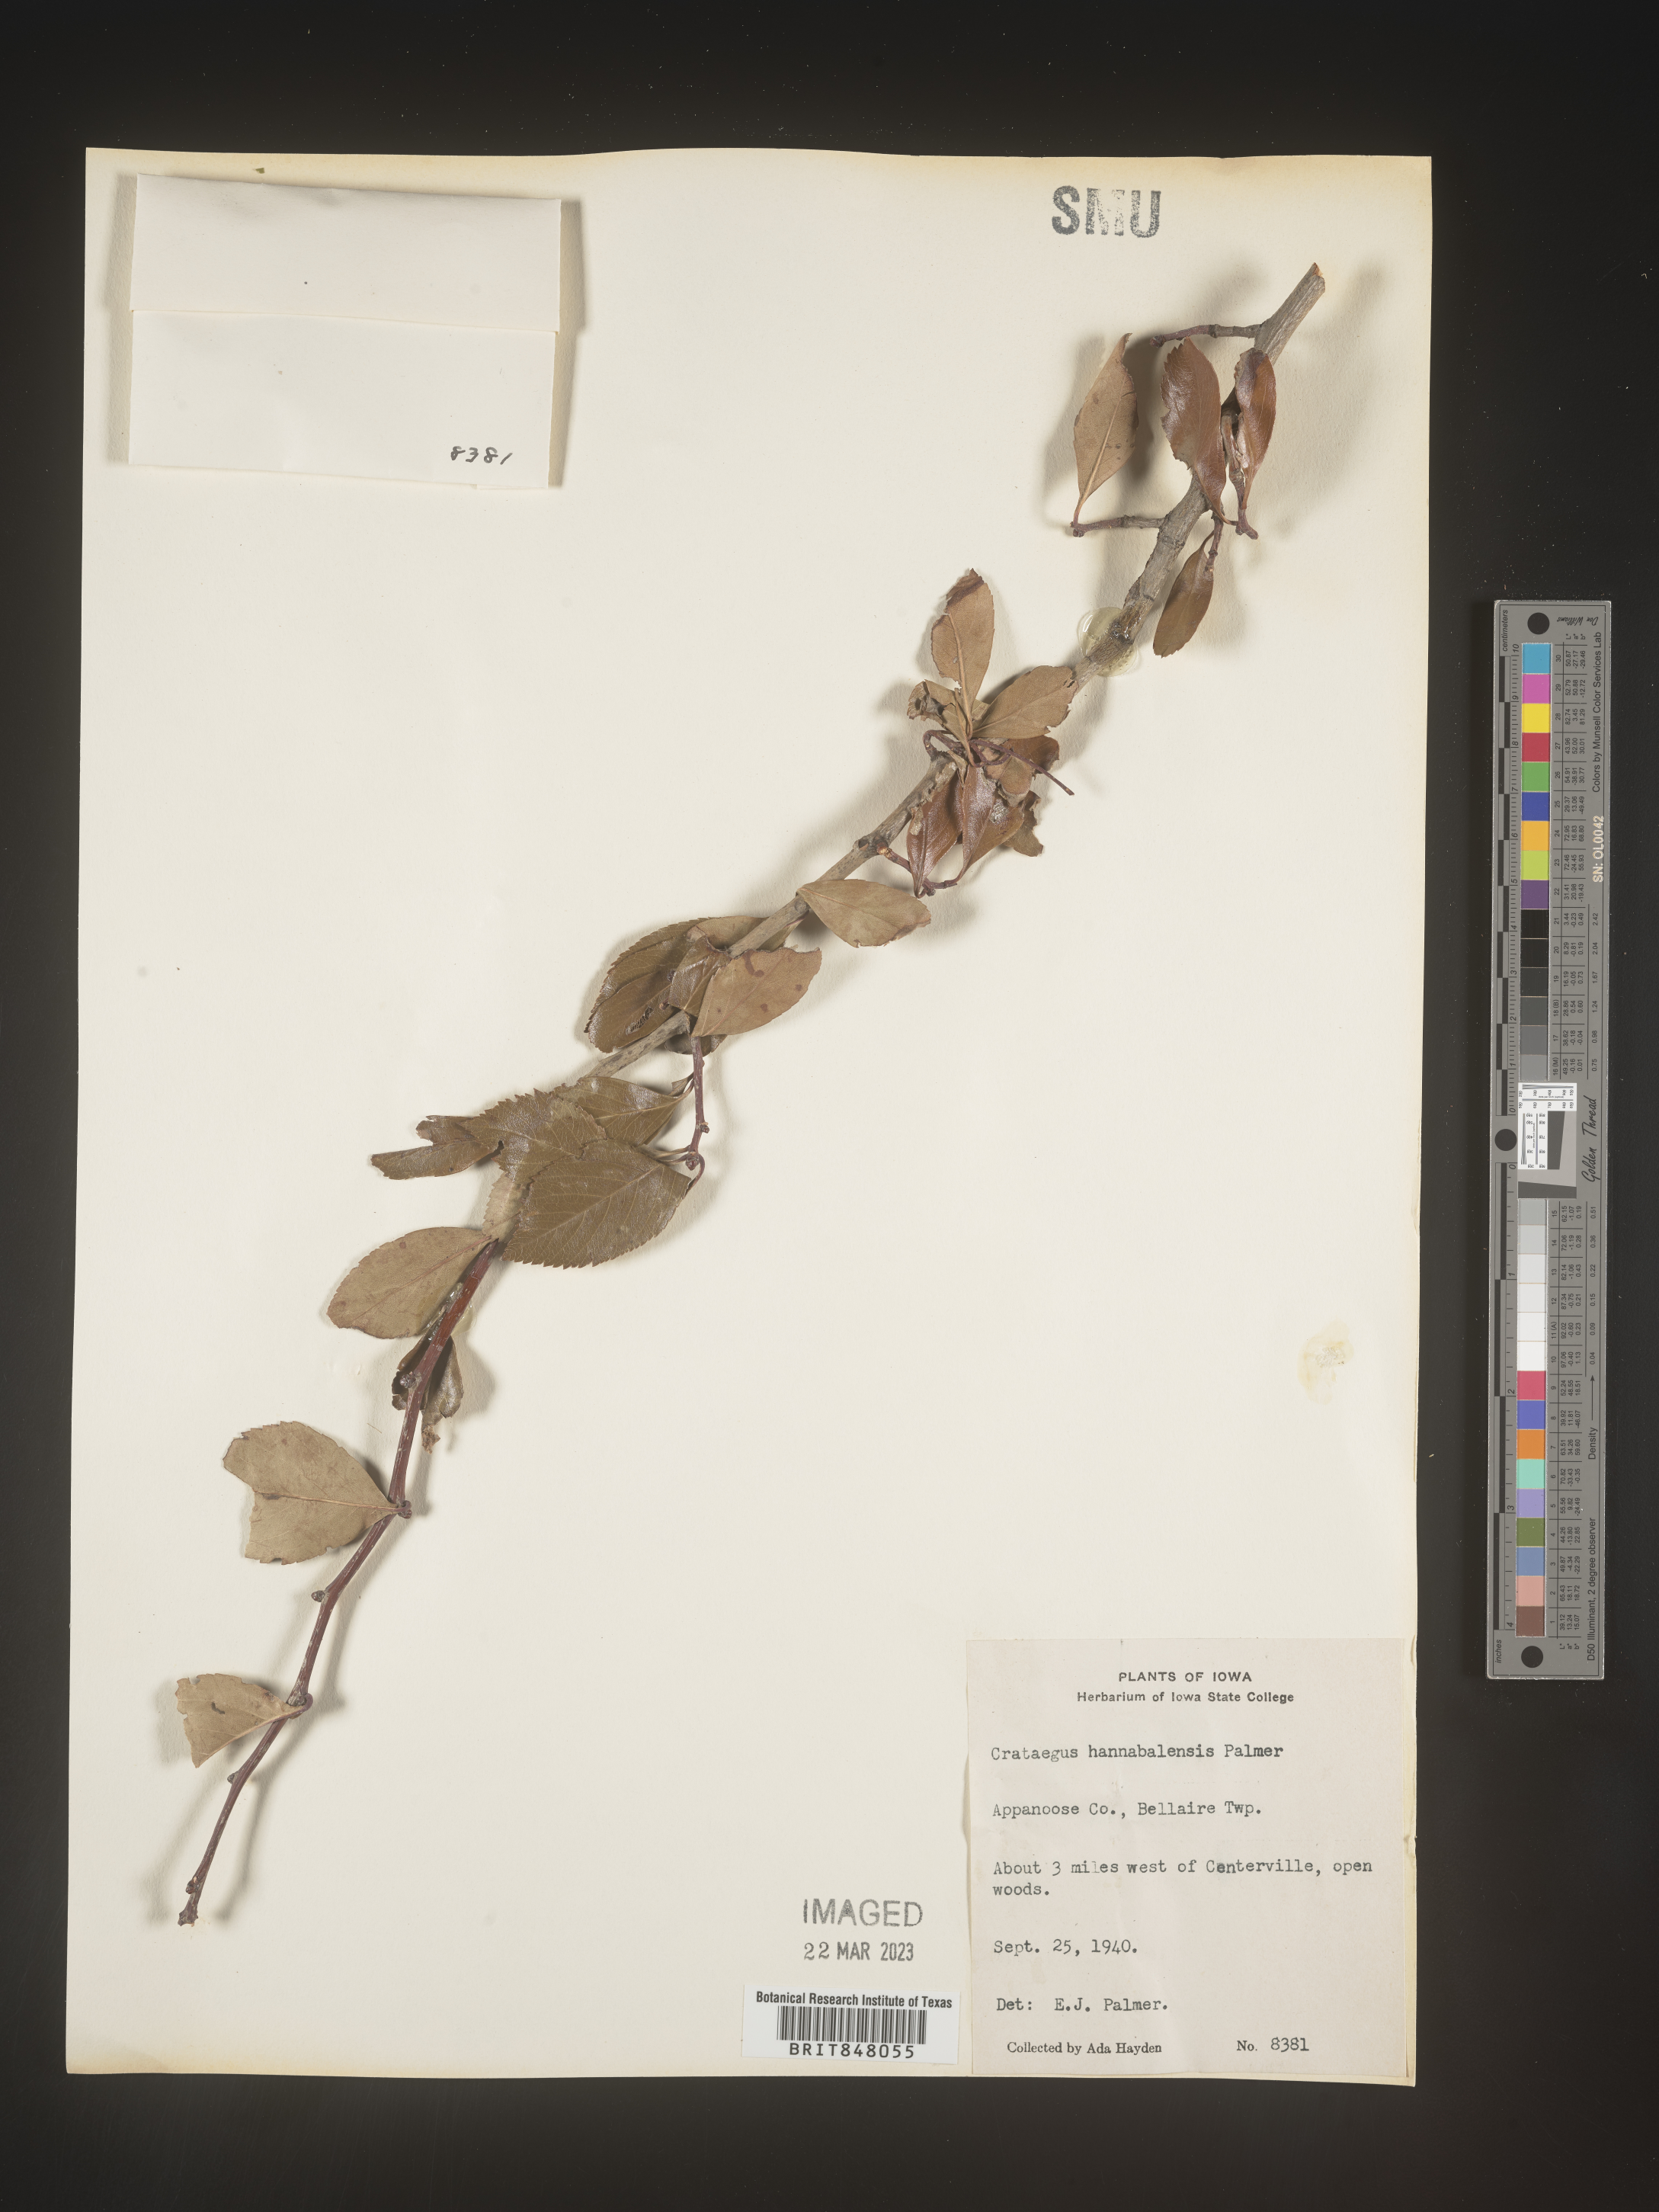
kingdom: Plantae
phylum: Tracheophyta
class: Magnoliopsida
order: Rosales
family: Rosaceae
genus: Crataegus
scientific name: Crataegus
